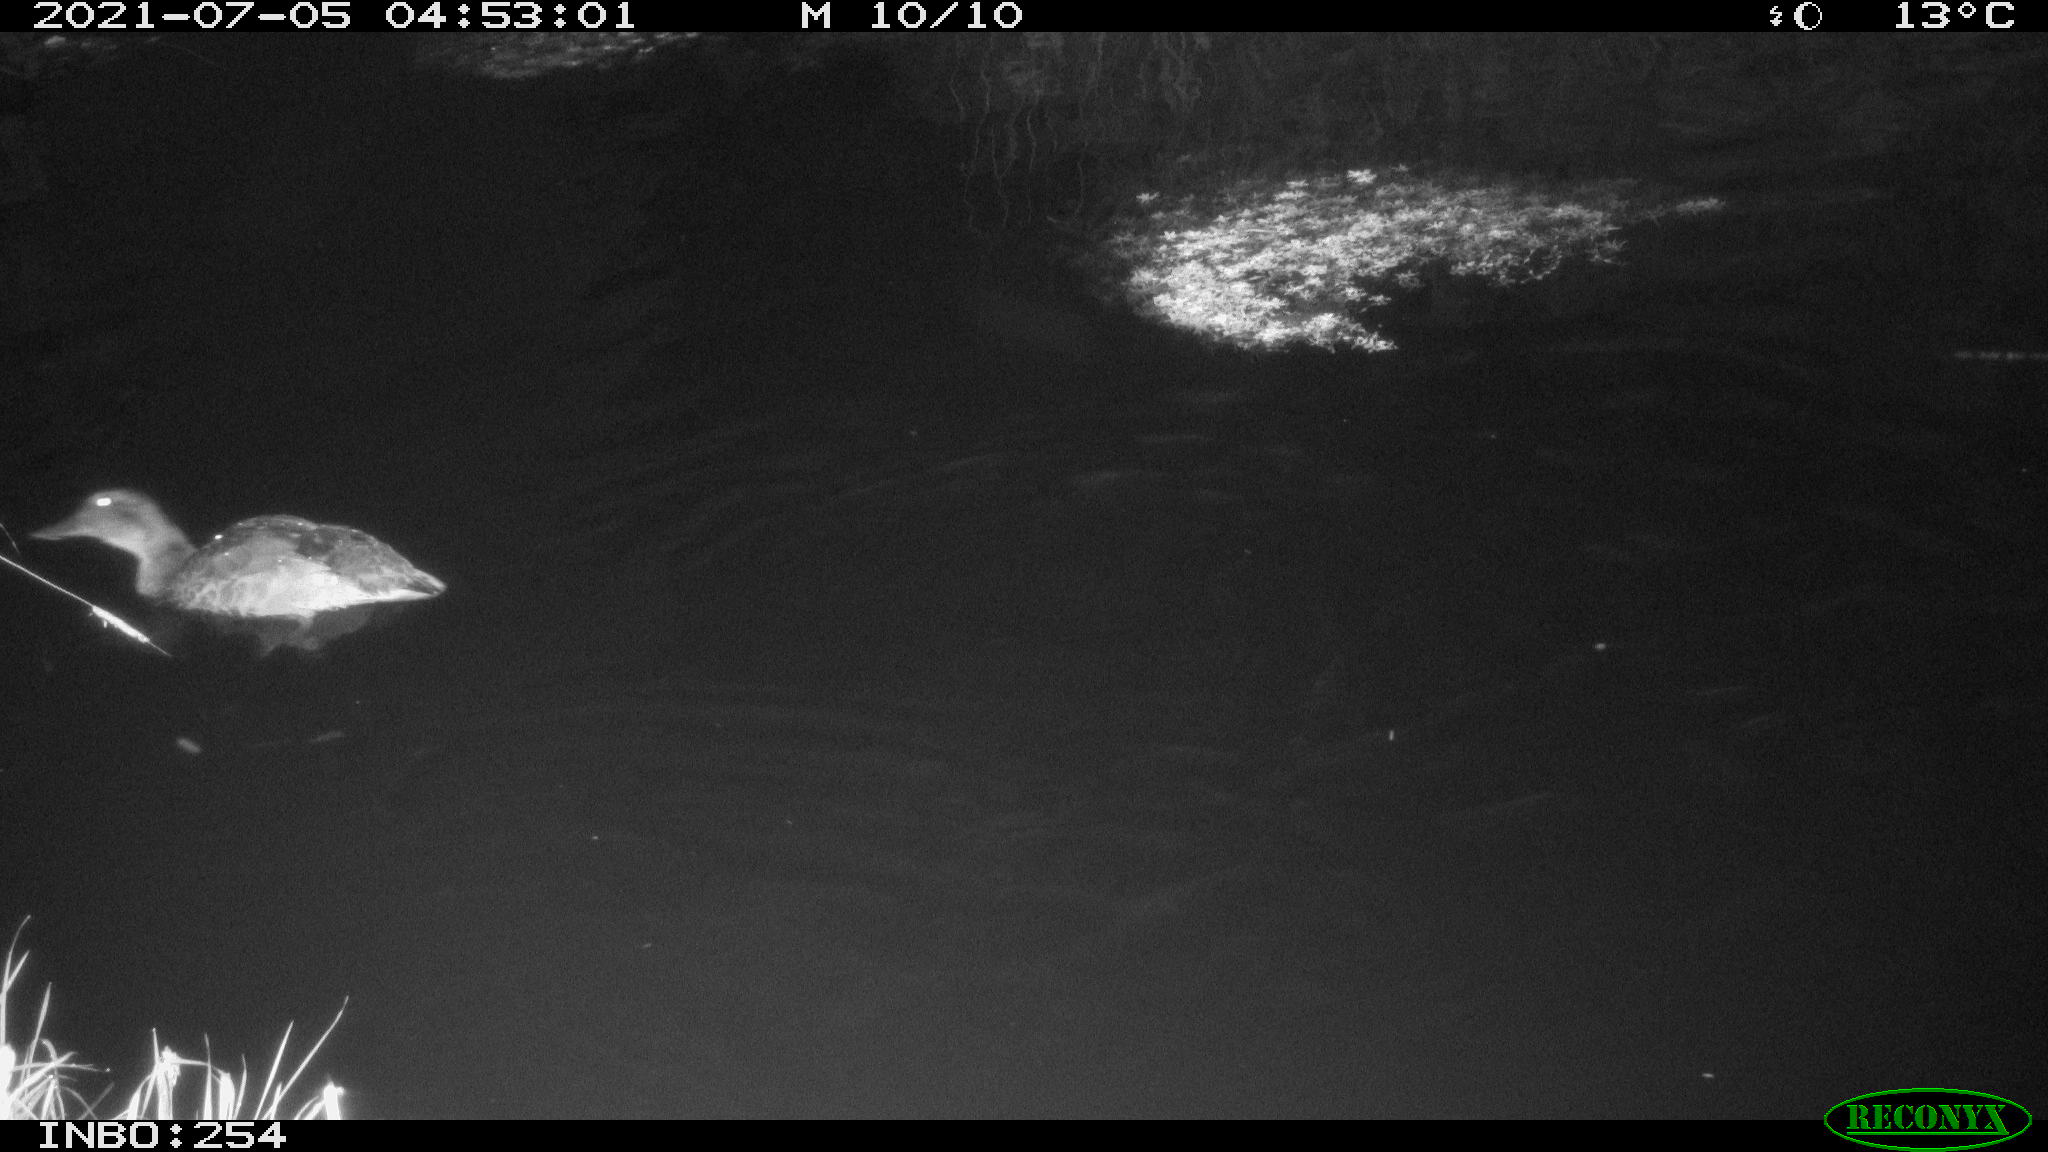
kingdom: Animalia
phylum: Chordata
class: Aves
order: Anseriformes
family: Anatidae
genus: Anas
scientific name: Anas platyrhynchos
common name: Mallard
